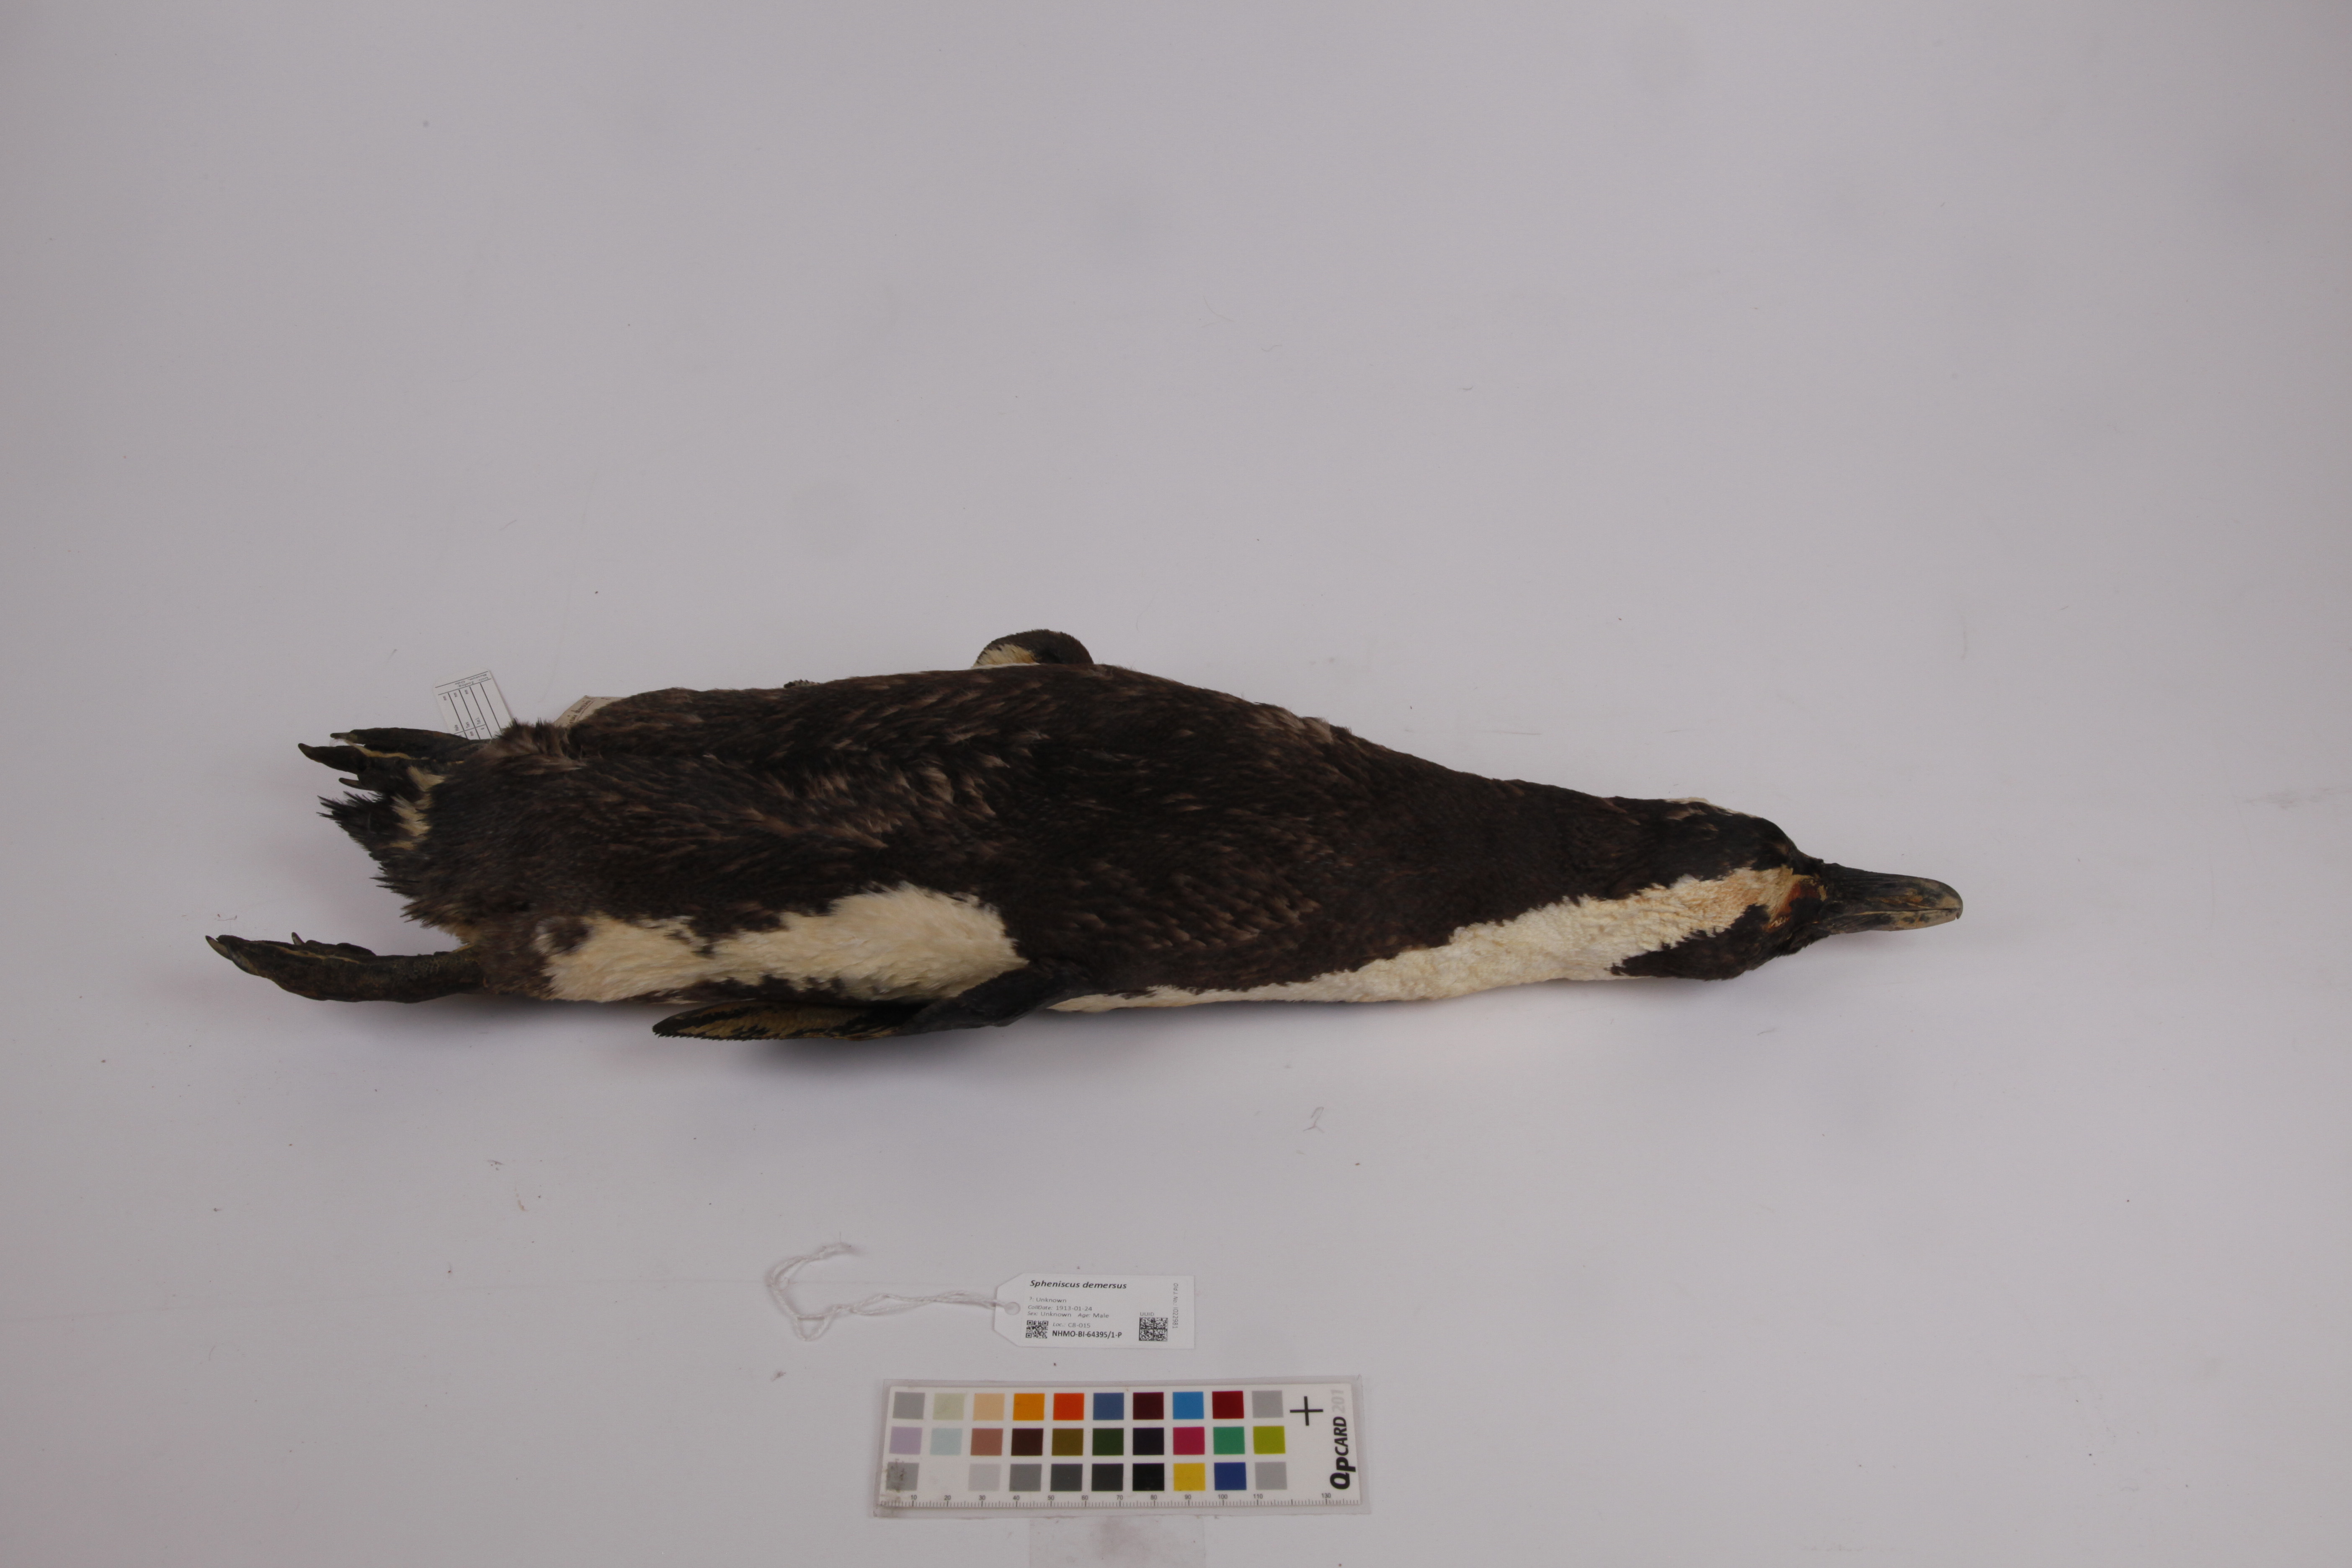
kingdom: Animalia
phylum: Chordata
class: Aves
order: Sphenisciformes
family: Spheniscidae
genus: Spheniscus
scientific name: Spheniscus demersus
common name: African penguin
